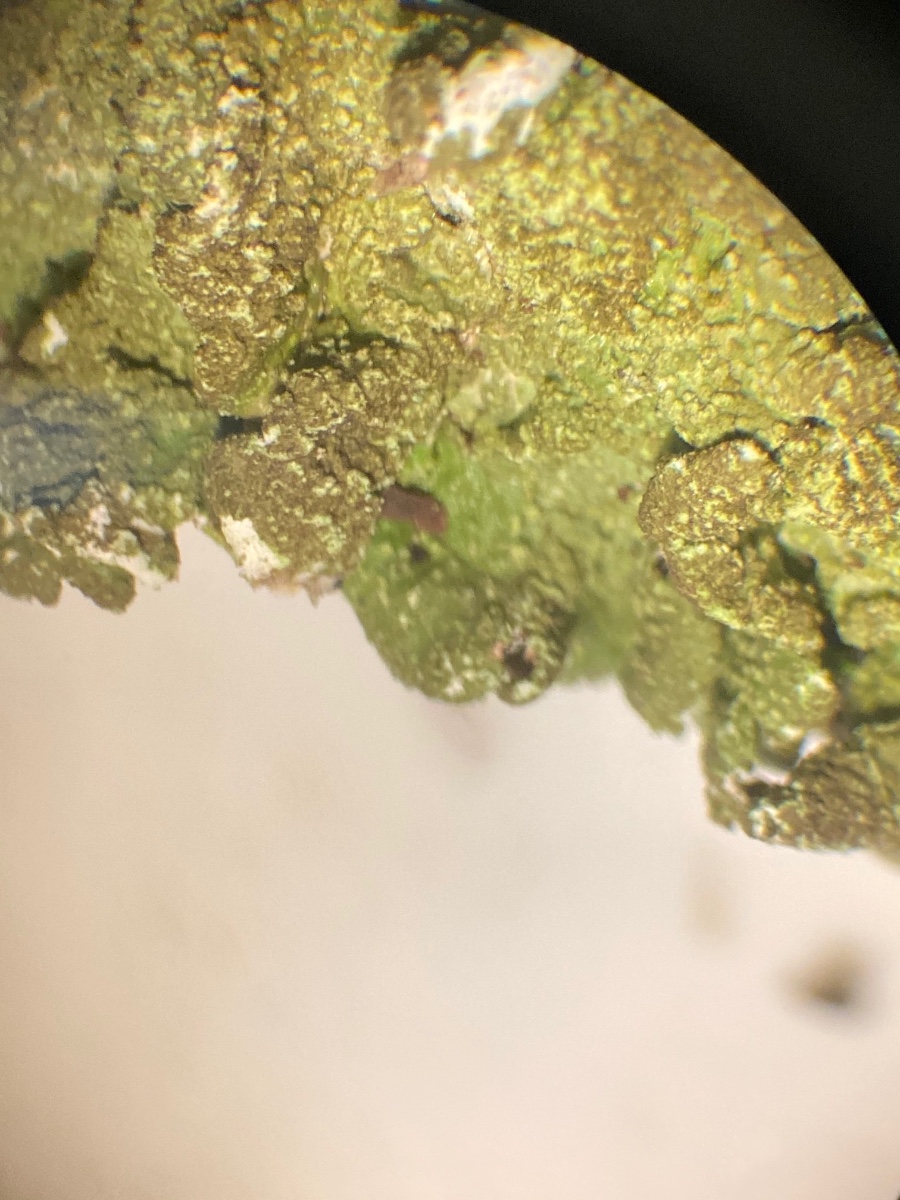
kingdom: Fungi
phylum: Ascomycota
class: Lecanoromycetes
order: Lecanorales
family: Parmeliaceae
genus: Melanelixia
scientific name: Melanelixia subaurifera
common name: guldpudret skållav
